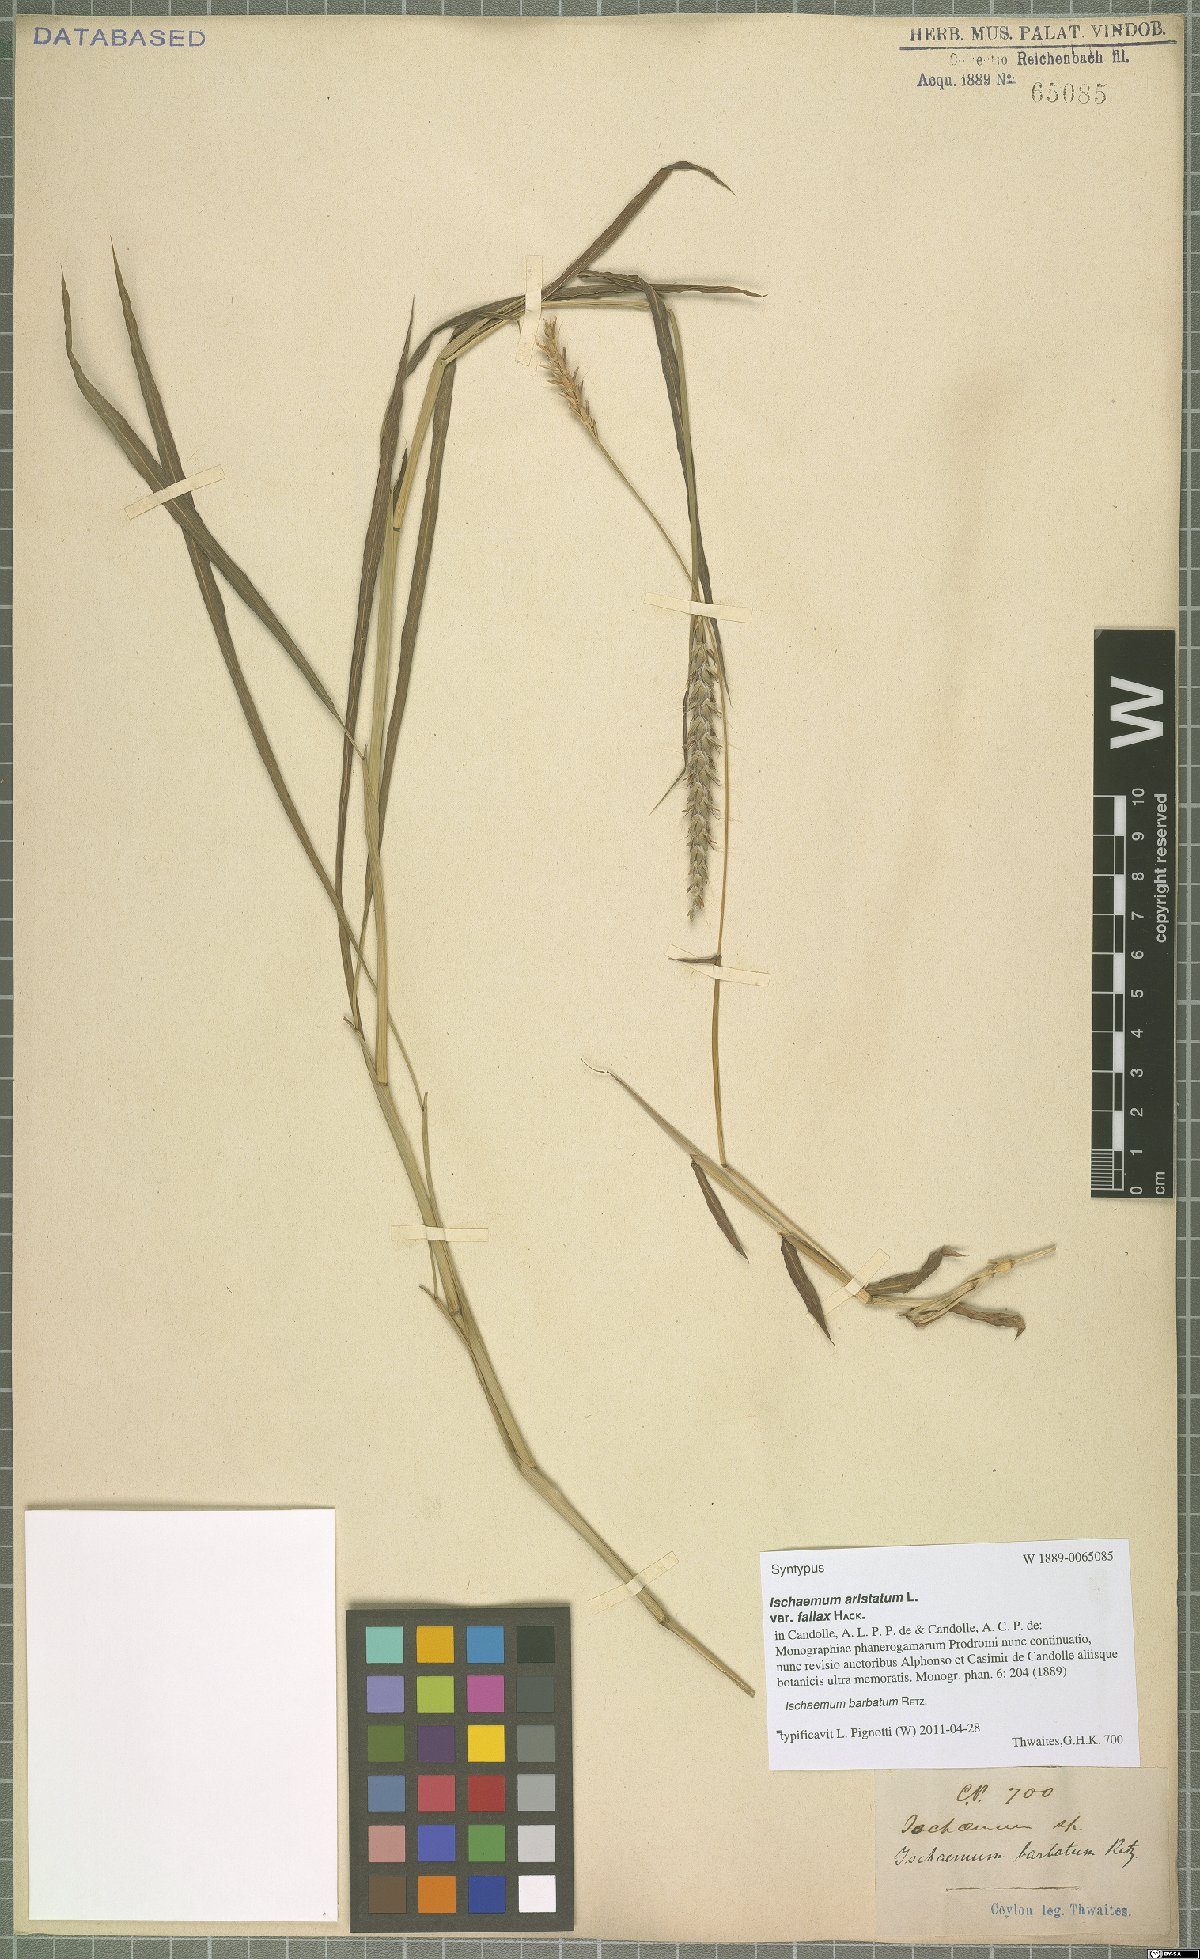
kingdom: Plantae
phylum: Tracheophyta
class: Liliopsida
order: Poales
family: Poaceae
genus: Ischaemum
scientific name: Ischaemum barbatum
